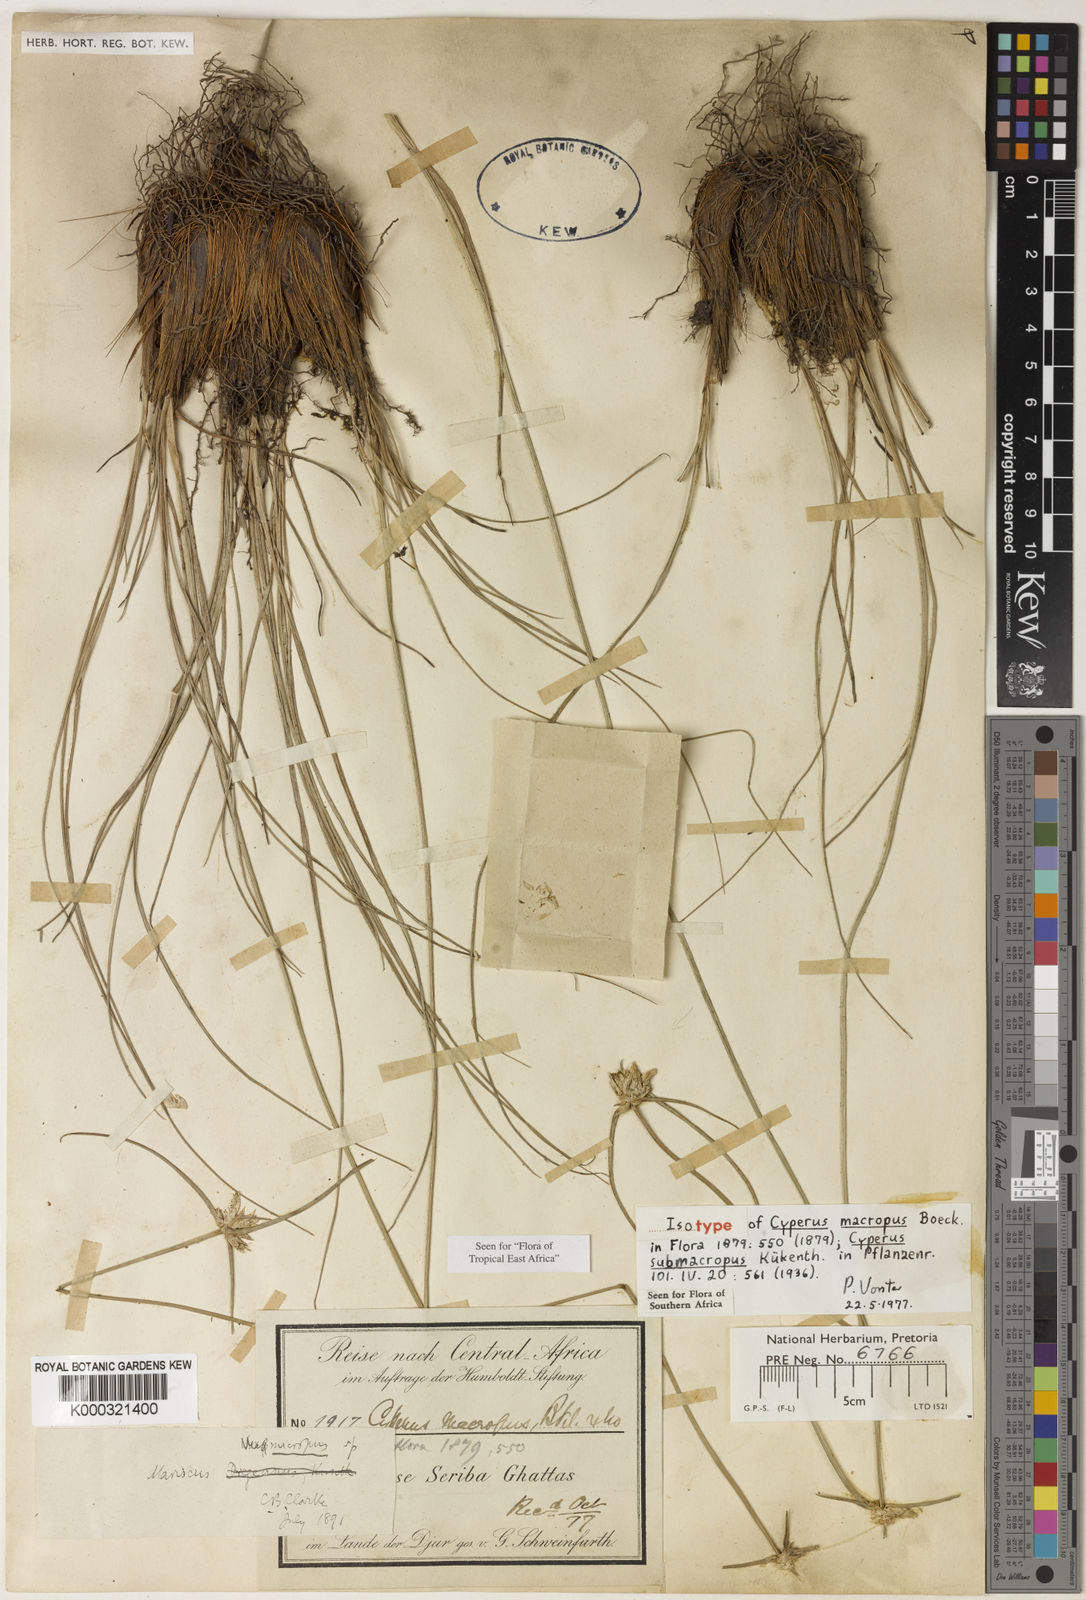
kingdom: Plantae
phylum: Tracheophyta
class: Liliopsida
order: Poales
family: Cyperaceae
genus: Cyperus
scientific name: Cyperus
